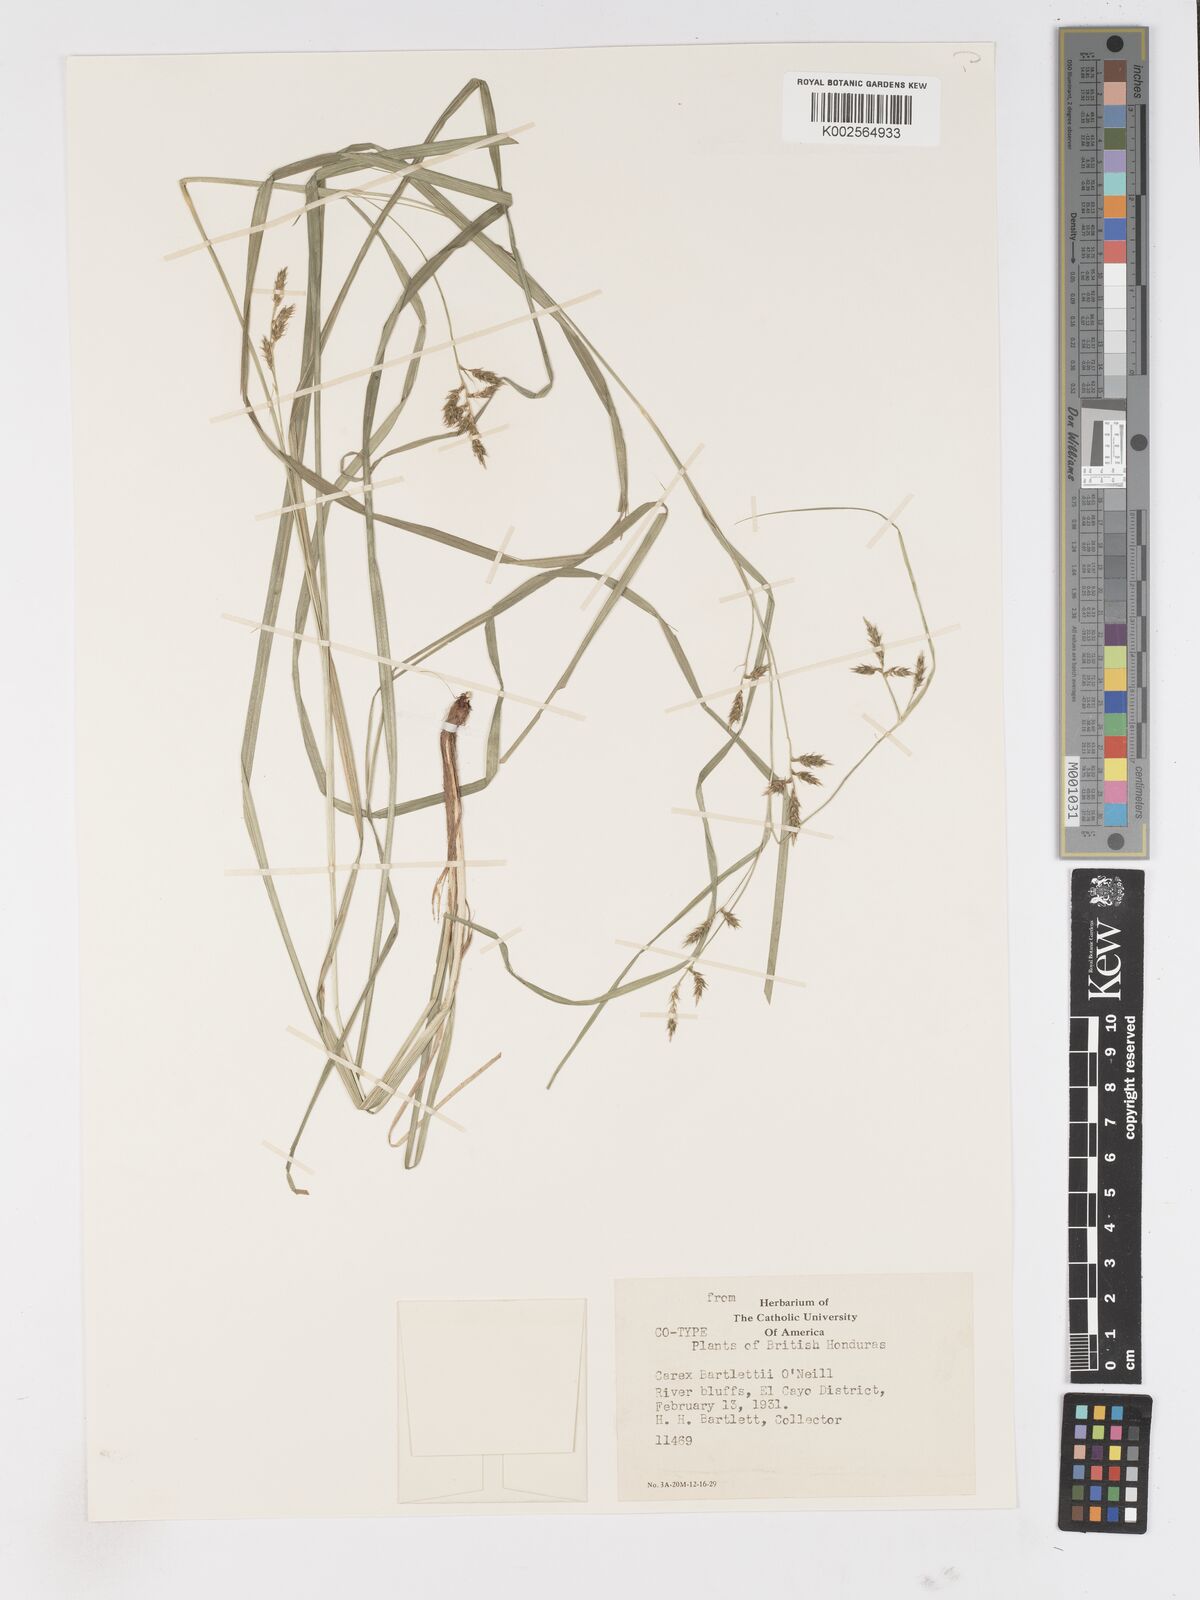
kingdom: Plantae
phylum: Tracheophyta
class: Liliopsida
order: Poales
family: Cyperaceae
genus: Carex
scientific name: Carex polystachya
